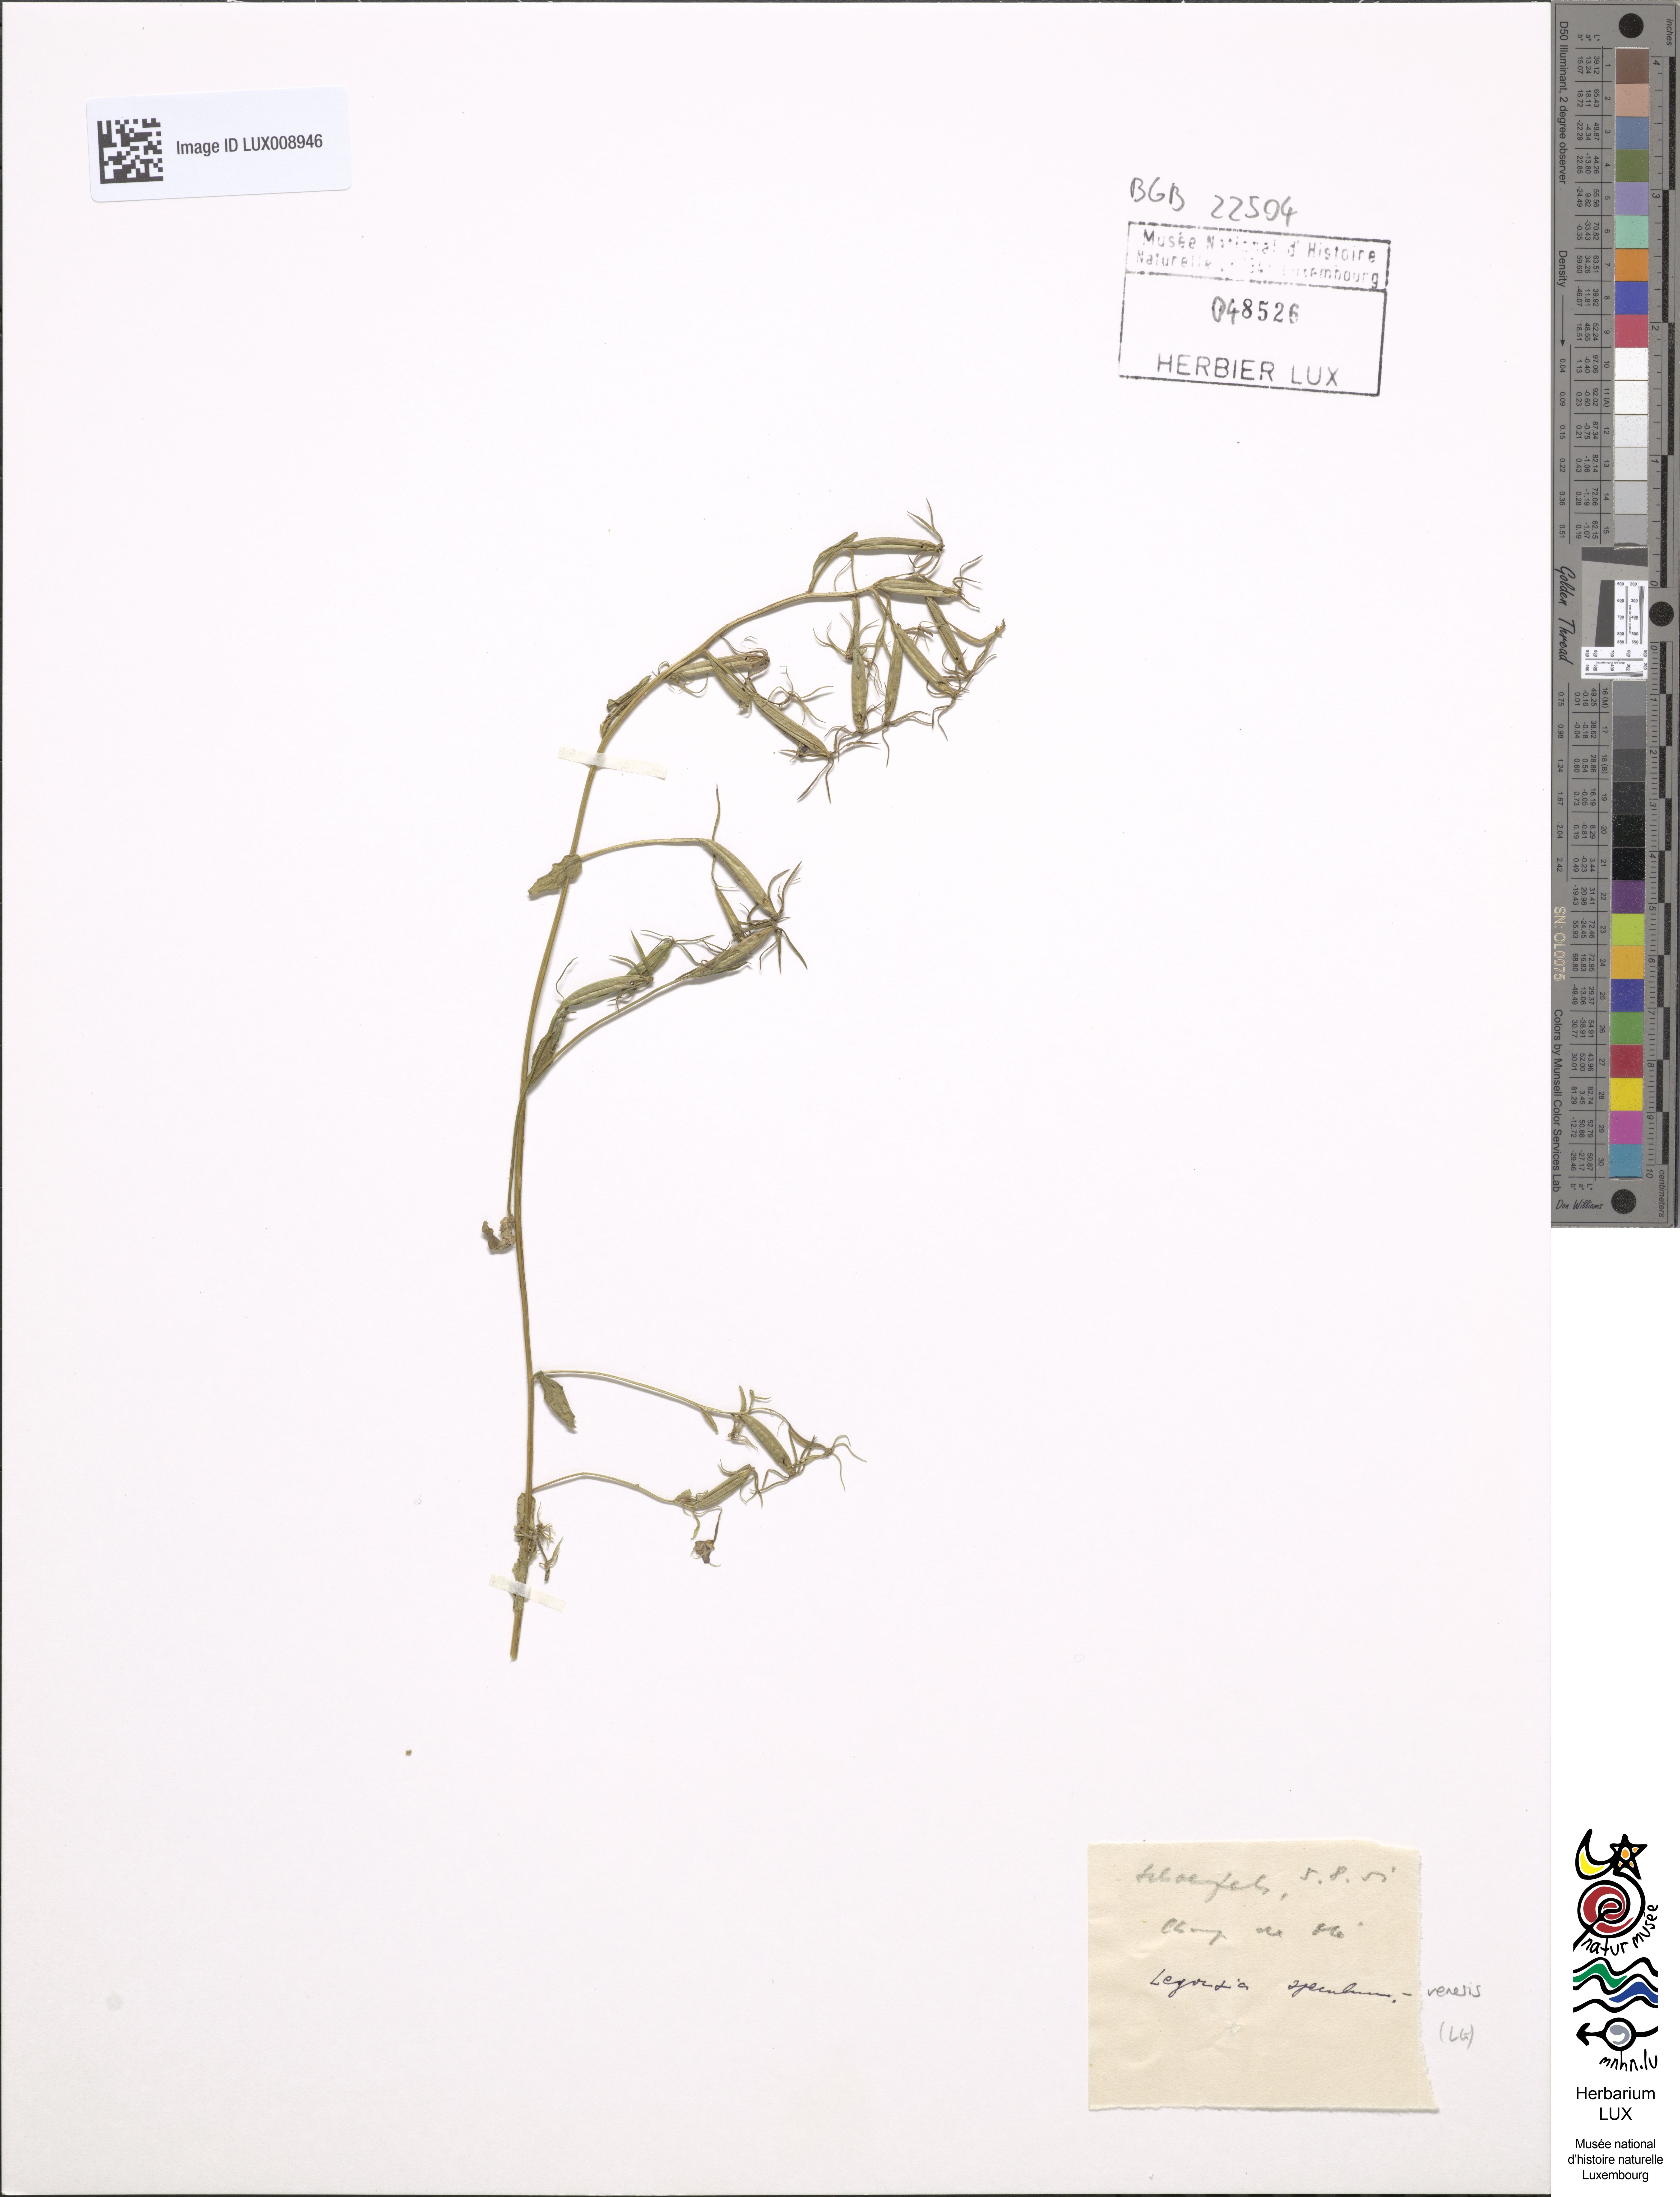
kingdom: Plantae
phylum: Tracheophyta
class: Magnoliopsida
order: Asterales
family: Campanulaceae
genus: Legousia
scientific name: Legousia speculum-veneris
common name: Large venus's-looking-glass
